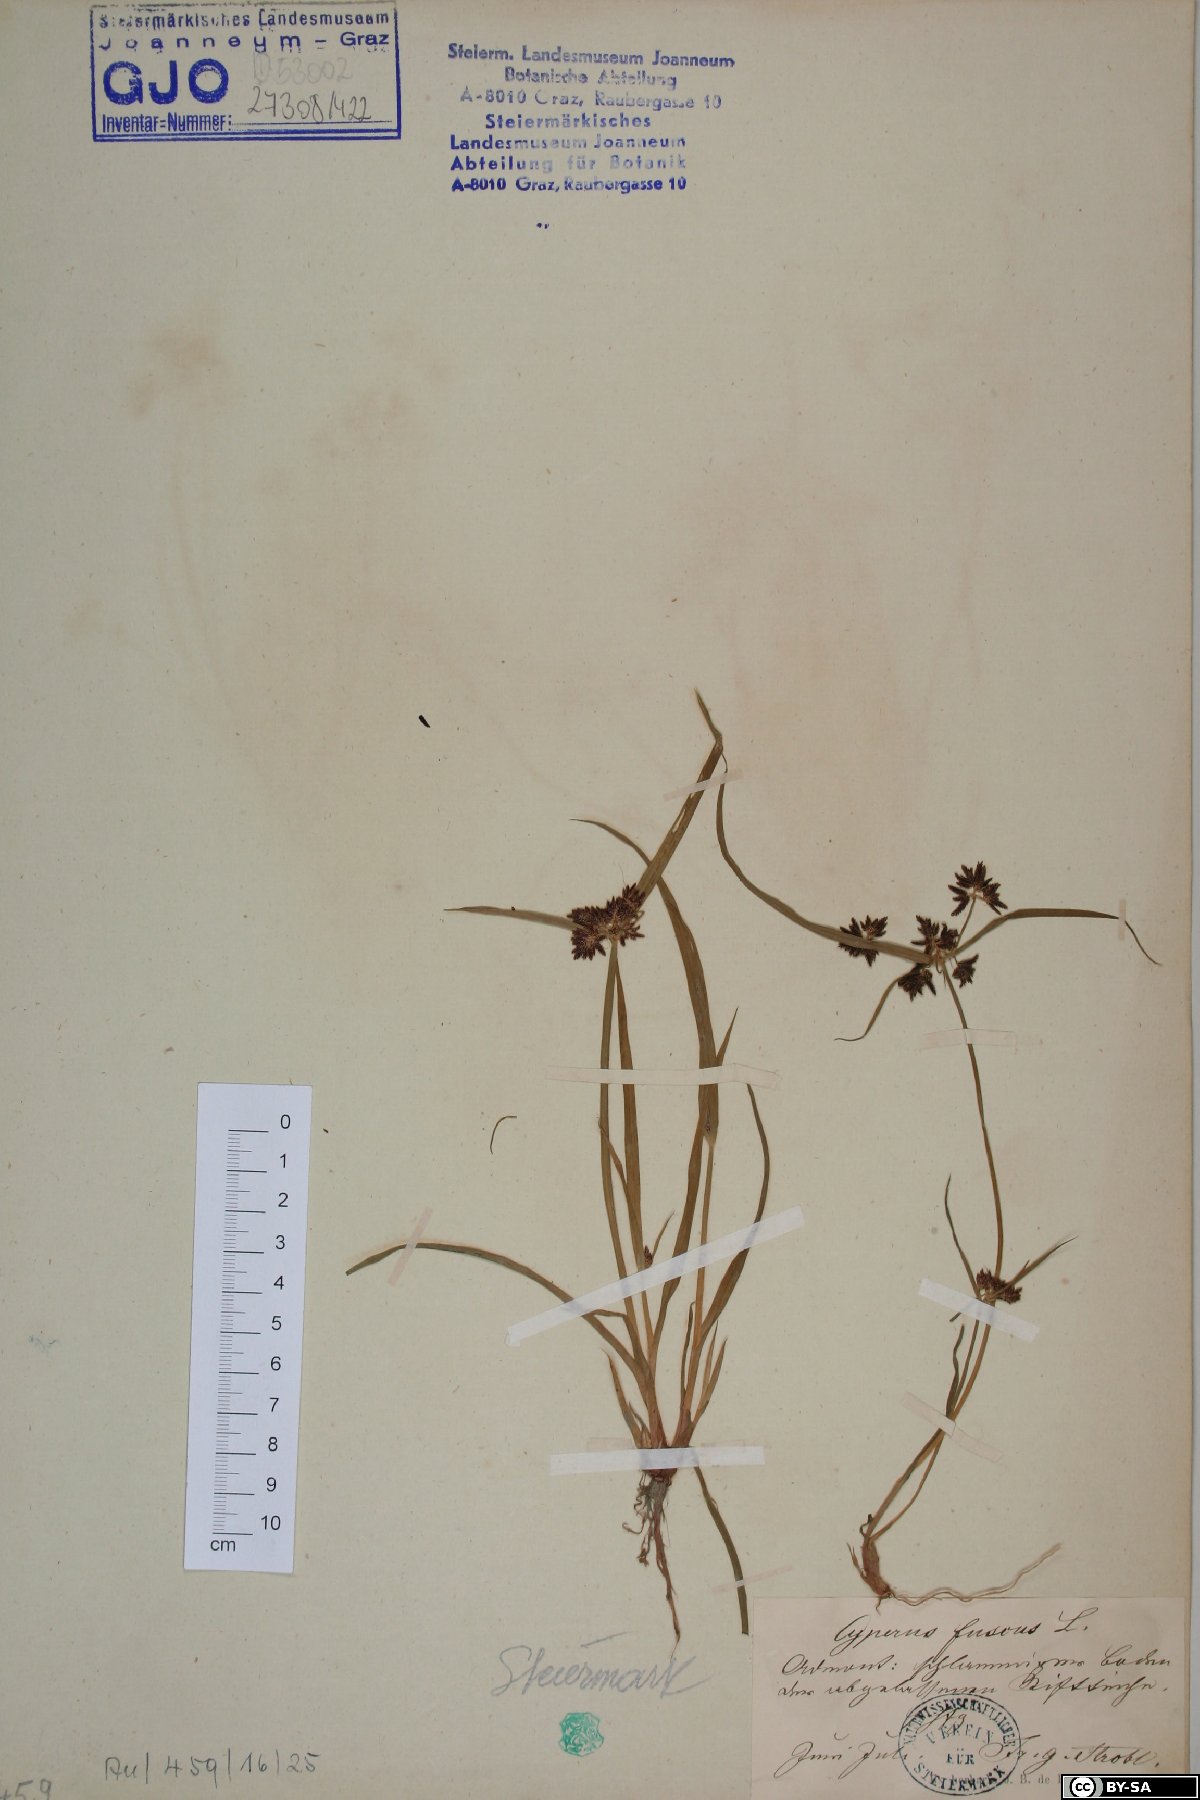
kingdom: Plantae
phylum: Tracheophyta
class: Liliopsida
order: Poales
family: Cyperaceae
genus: Cyperus
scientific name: Cyperus fuscus
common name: Brown galingale
